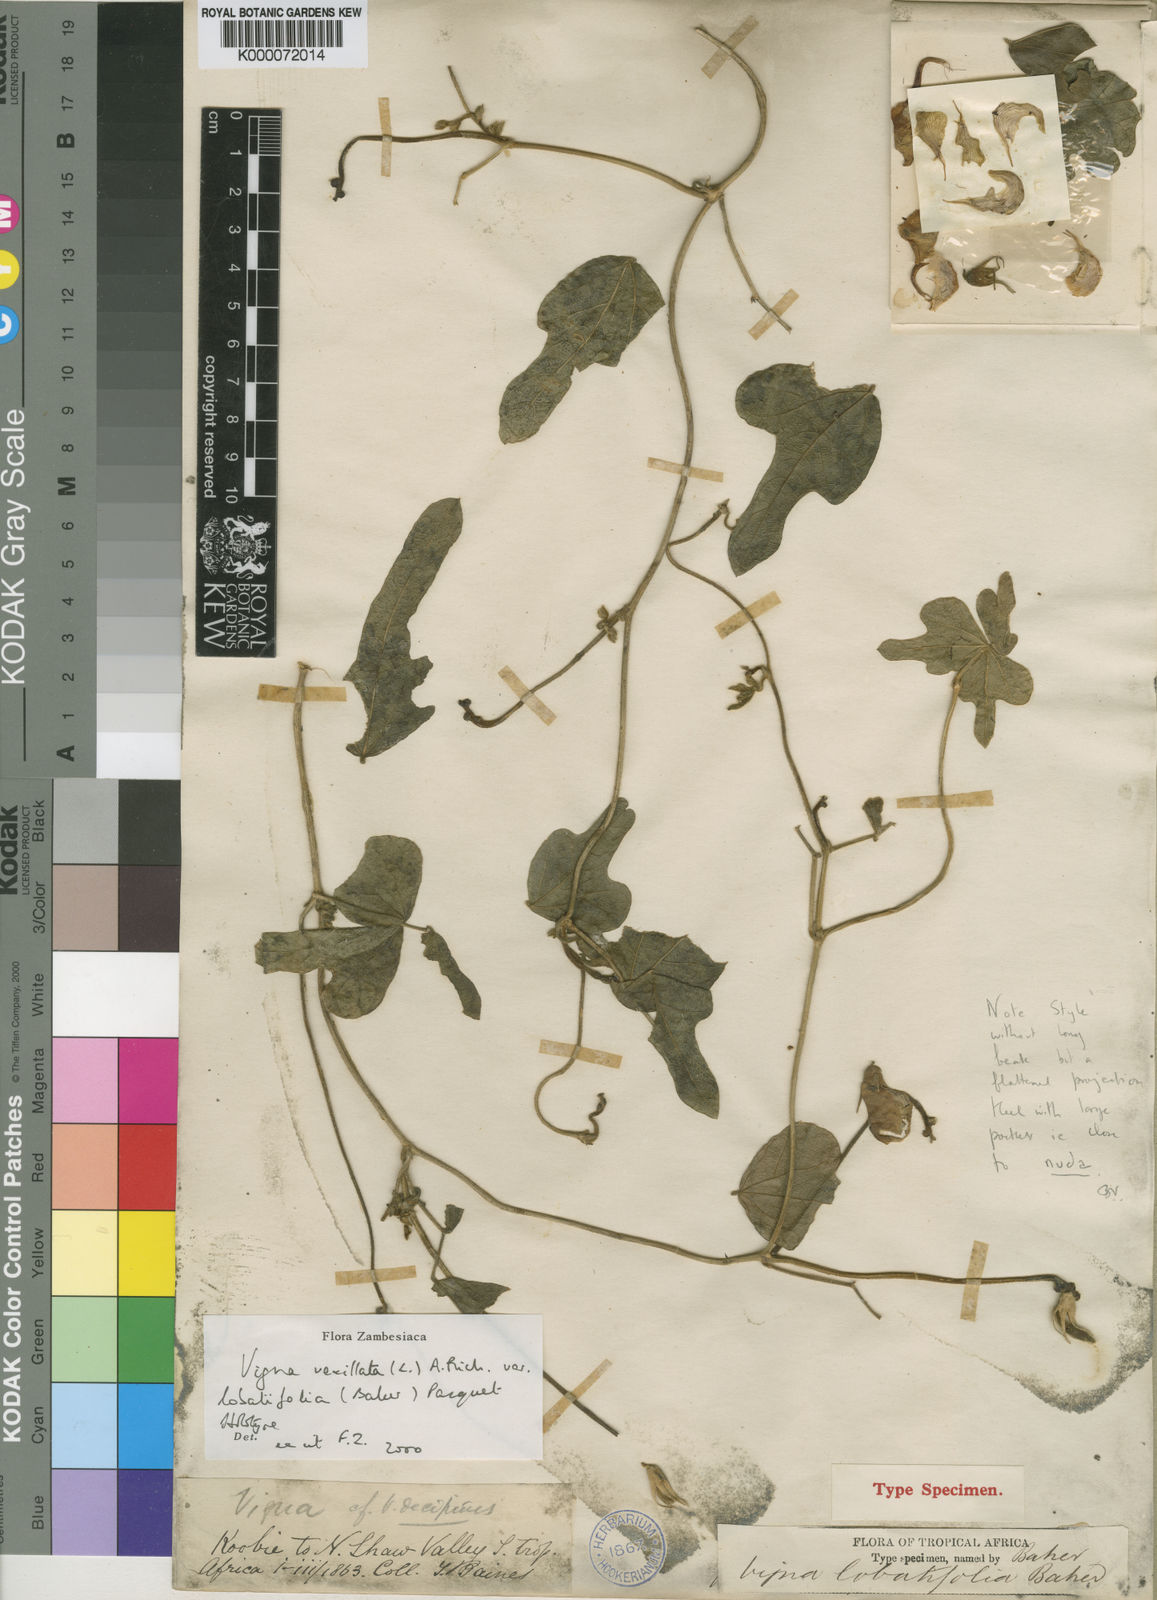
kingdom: Plantae
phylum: Tracheophyta
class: Magnoliopsida
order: Fabales
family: Fabaceae
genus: Vigna
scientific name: Vigna lobatifolia
